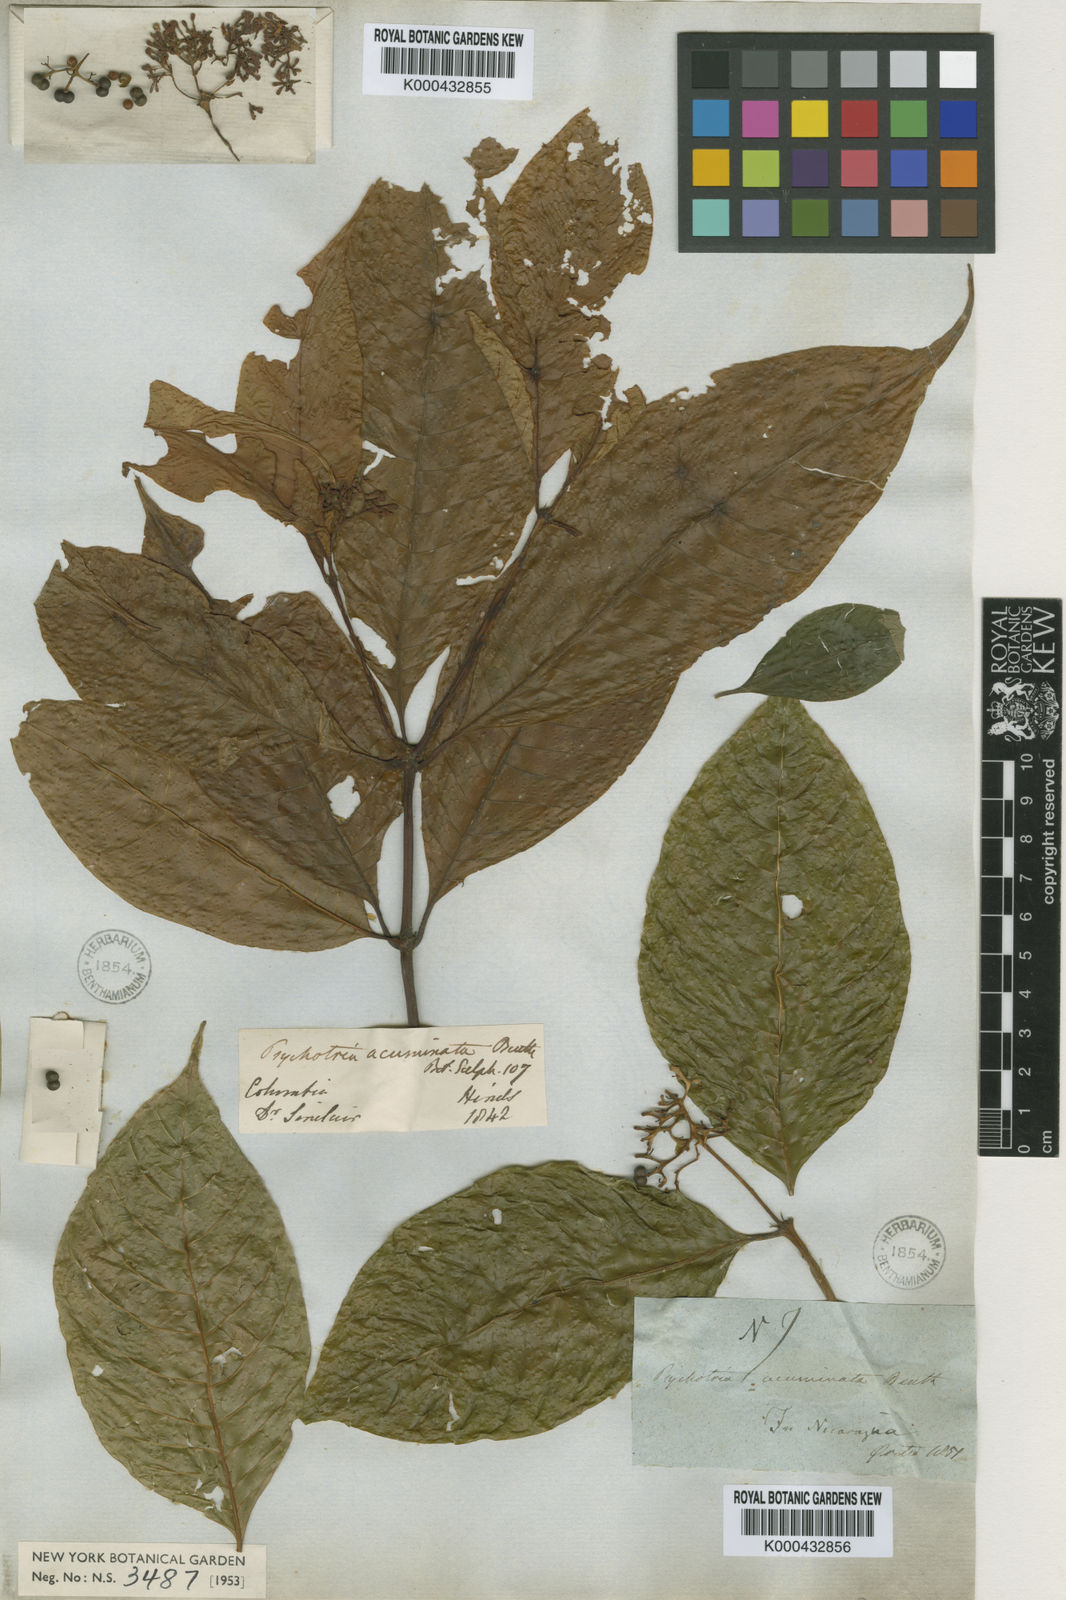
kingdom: Plantae
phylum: Tracheophyta
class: Magnoliopsida
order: Gentianales
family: Rubiaceae
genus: Palicourea
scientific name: Palicourea acuminata
